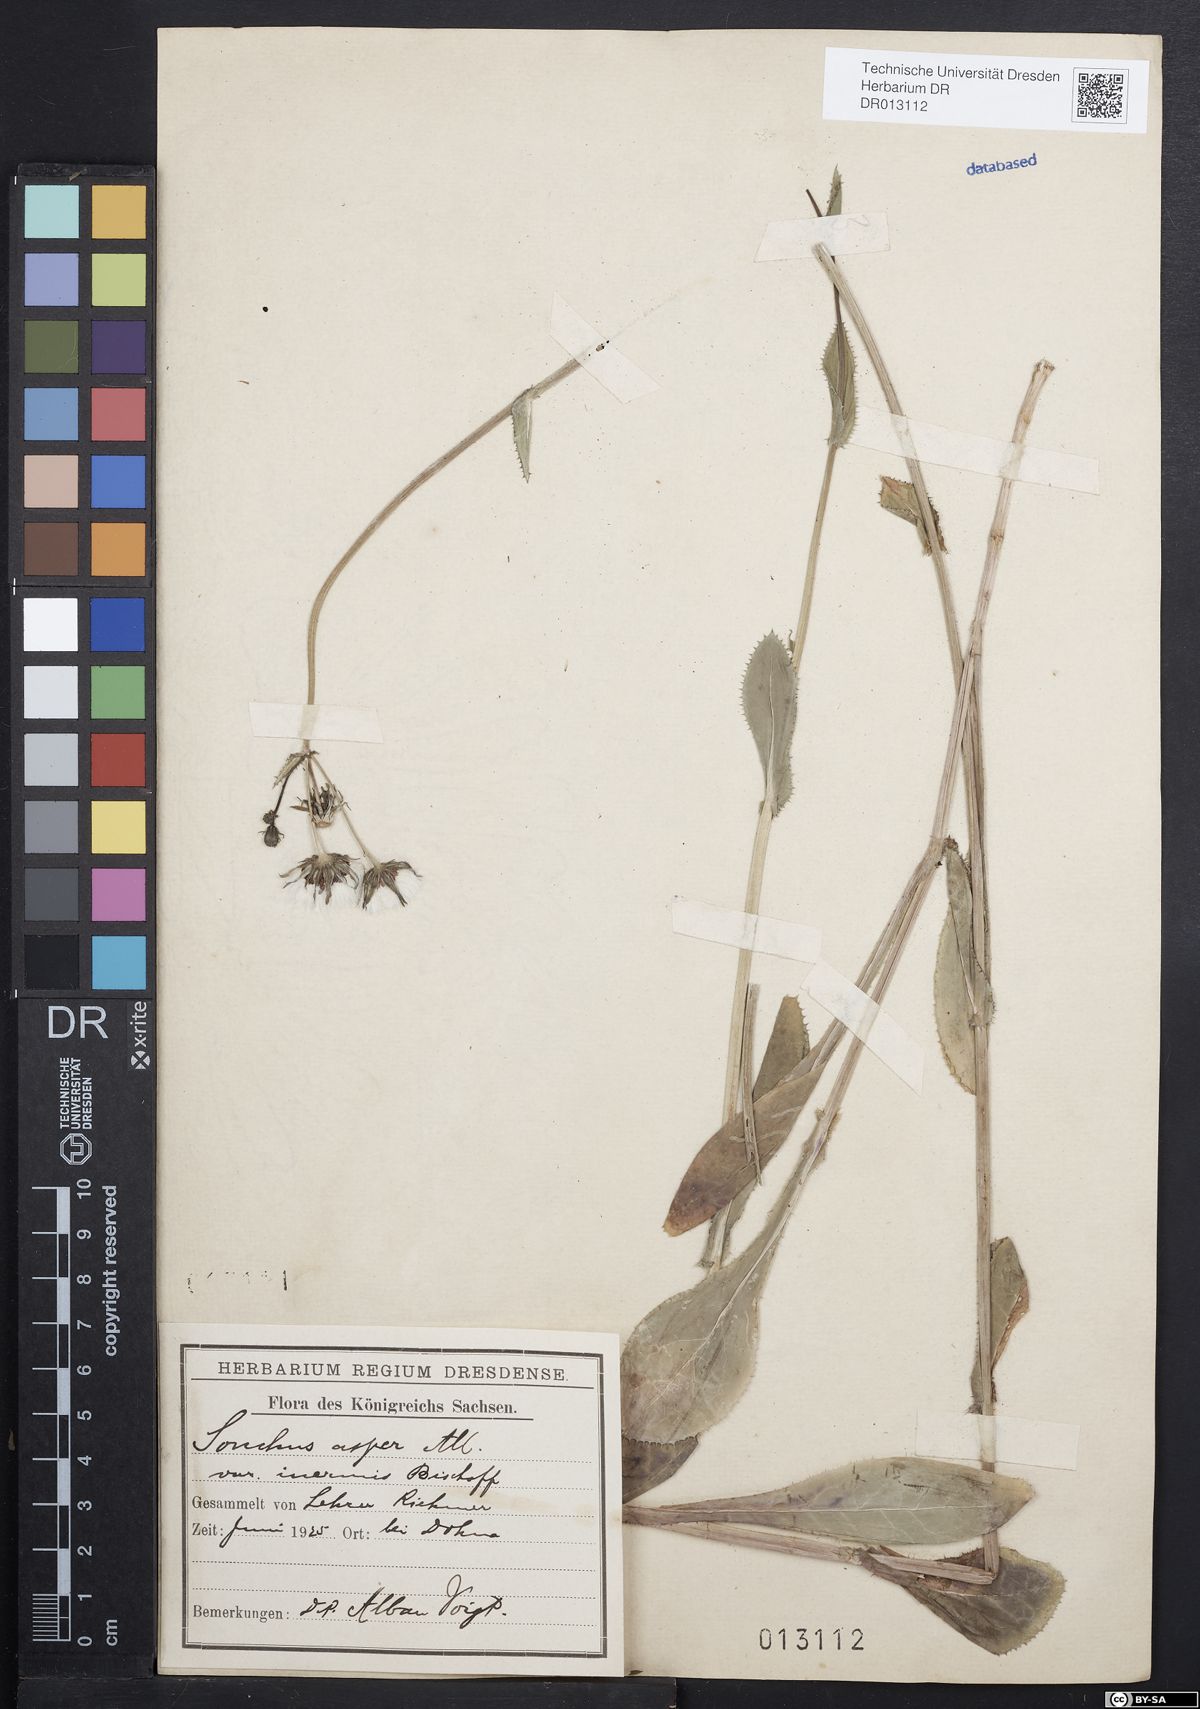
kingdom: Plantae
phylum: Tracheophyta
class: Magnoliopsida
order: Asterales
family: Asteraceae
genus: Sonchus
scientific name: Sonchus asper
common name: Prickly sow-thistle
